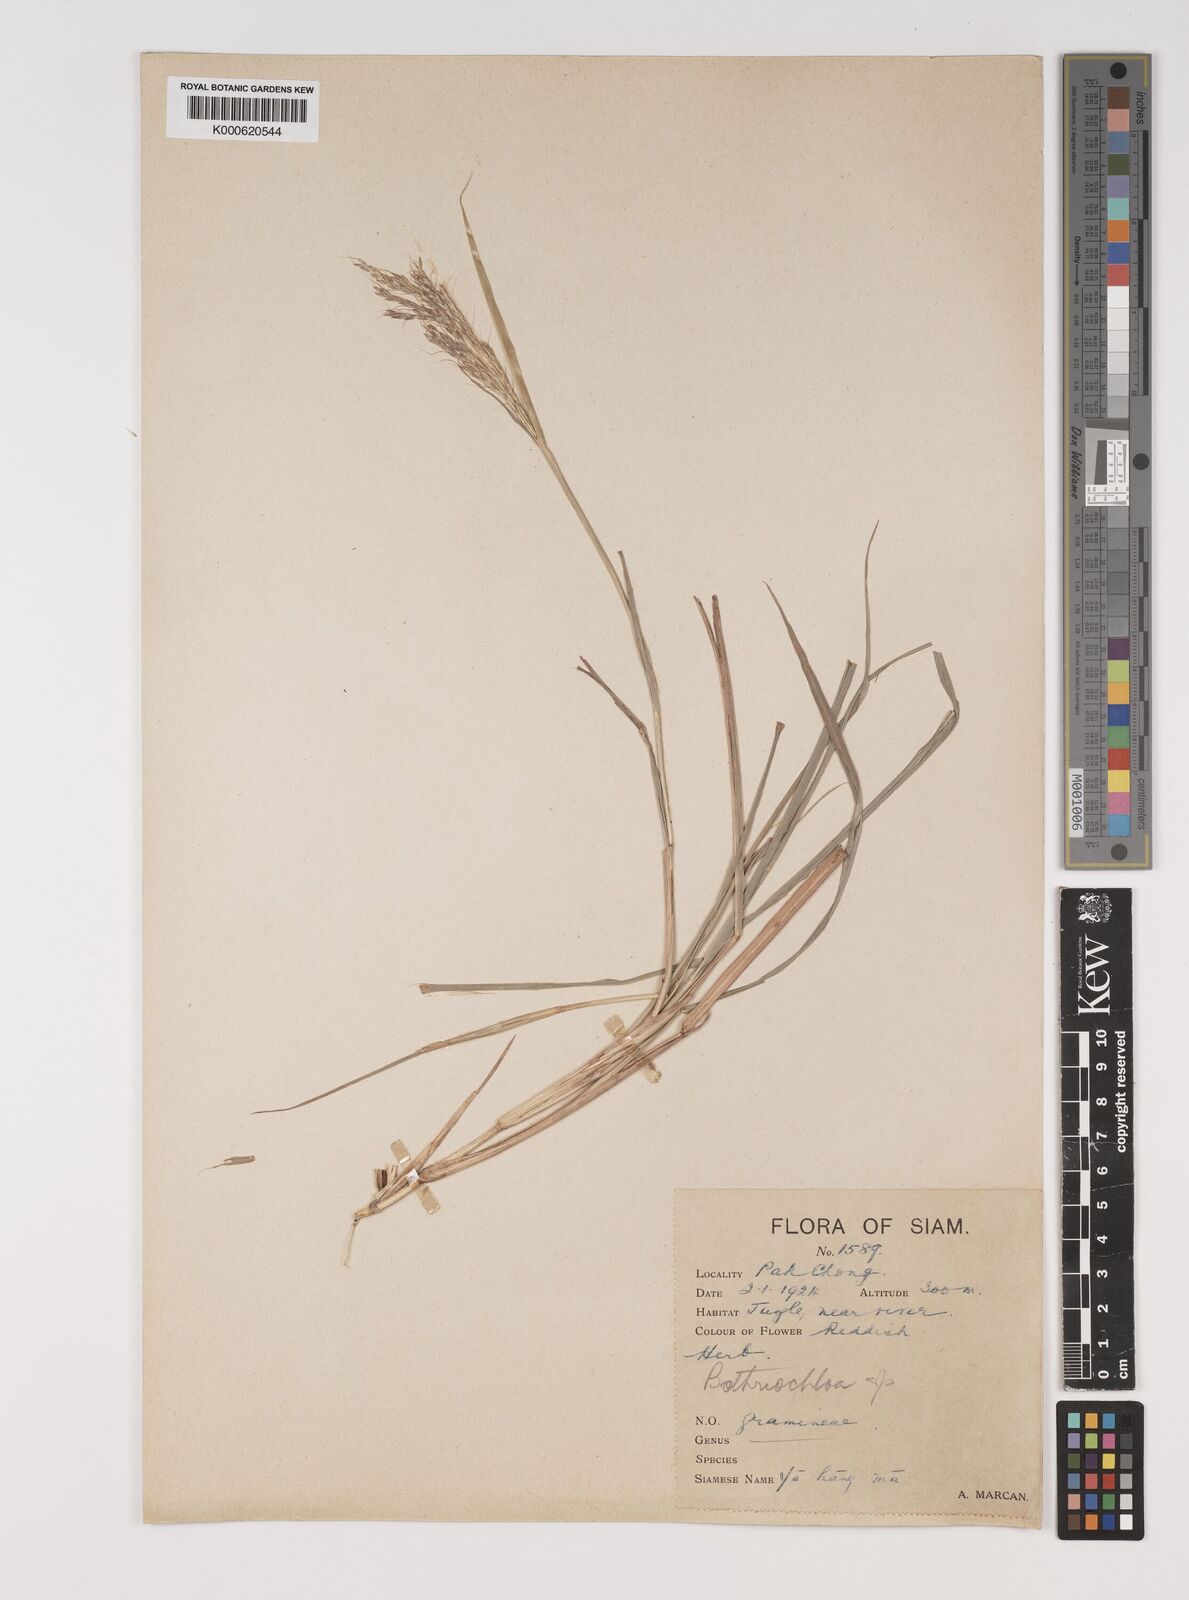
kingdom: Plantae
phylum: Tracheophyta
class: Liliopsida
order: Poales
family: Poaceae
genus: Bothriochloa
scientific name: Bothriochloa bladhii
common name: Caucasian bluestem
